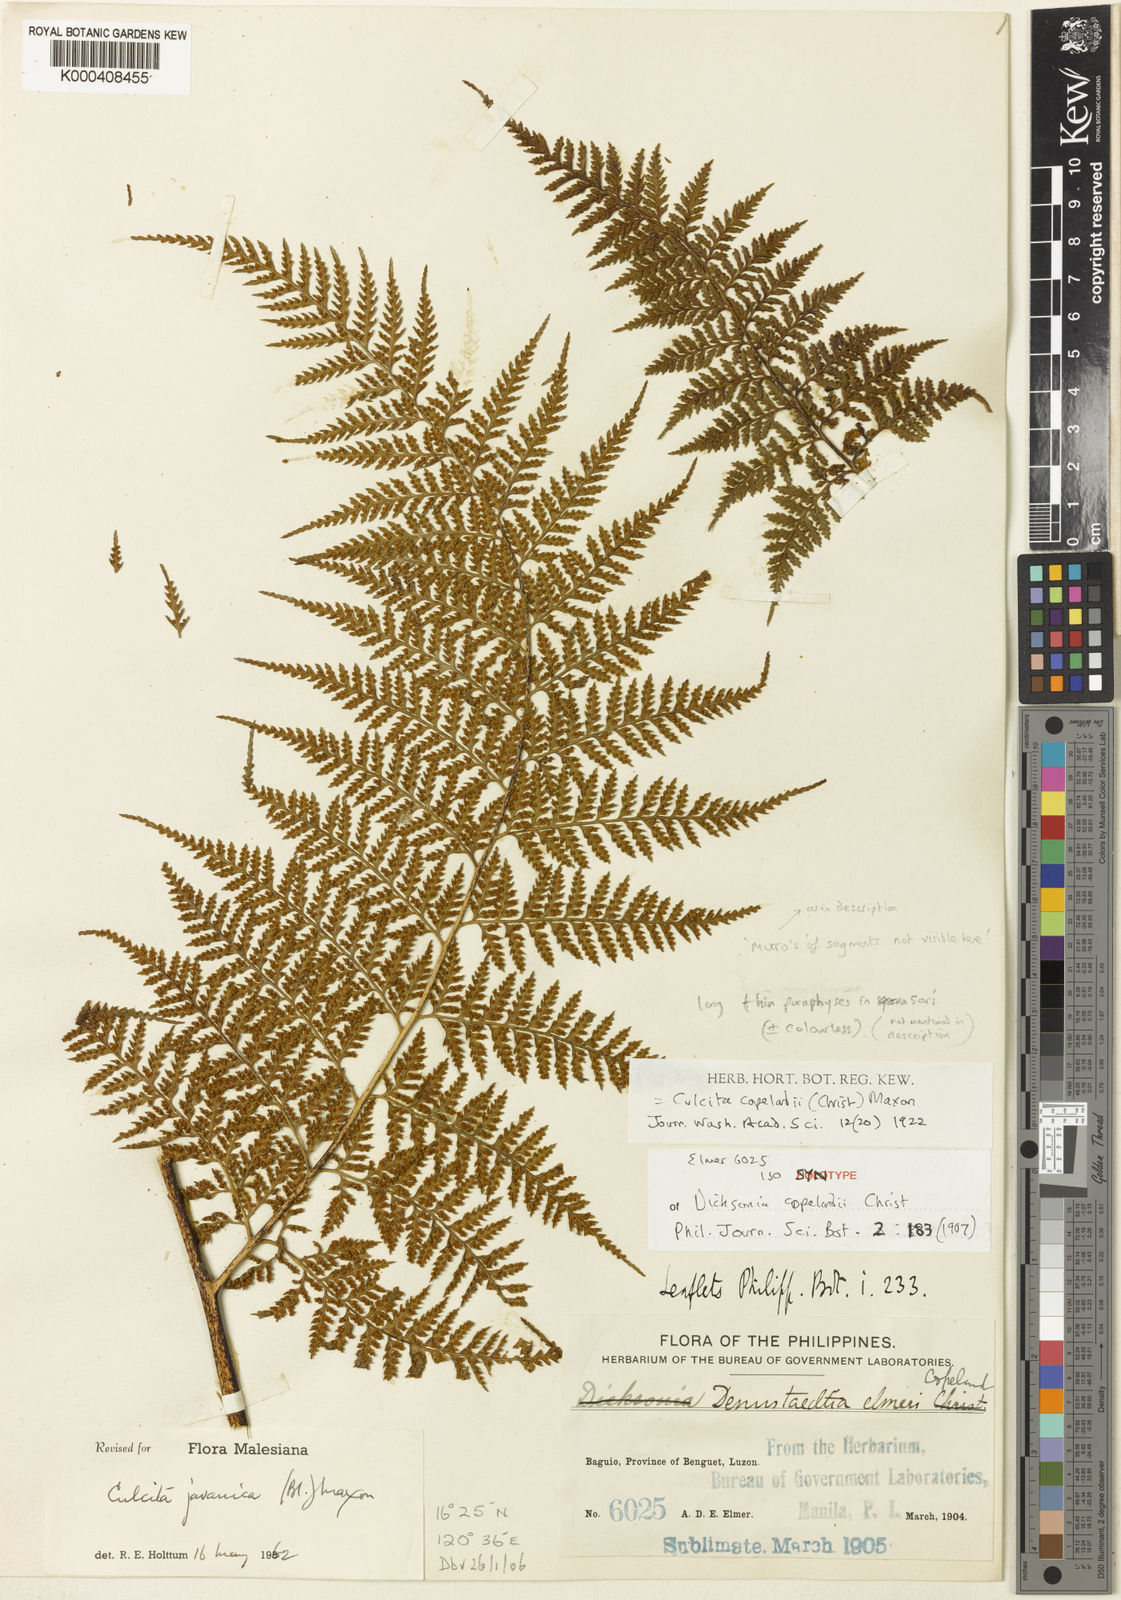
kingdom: Plantae
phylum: Tracheophyta
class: Polypodiopsida
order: Cyatheales
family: Dicksoniaceae
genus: Calochlaena
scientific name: Calochlaena javanica
